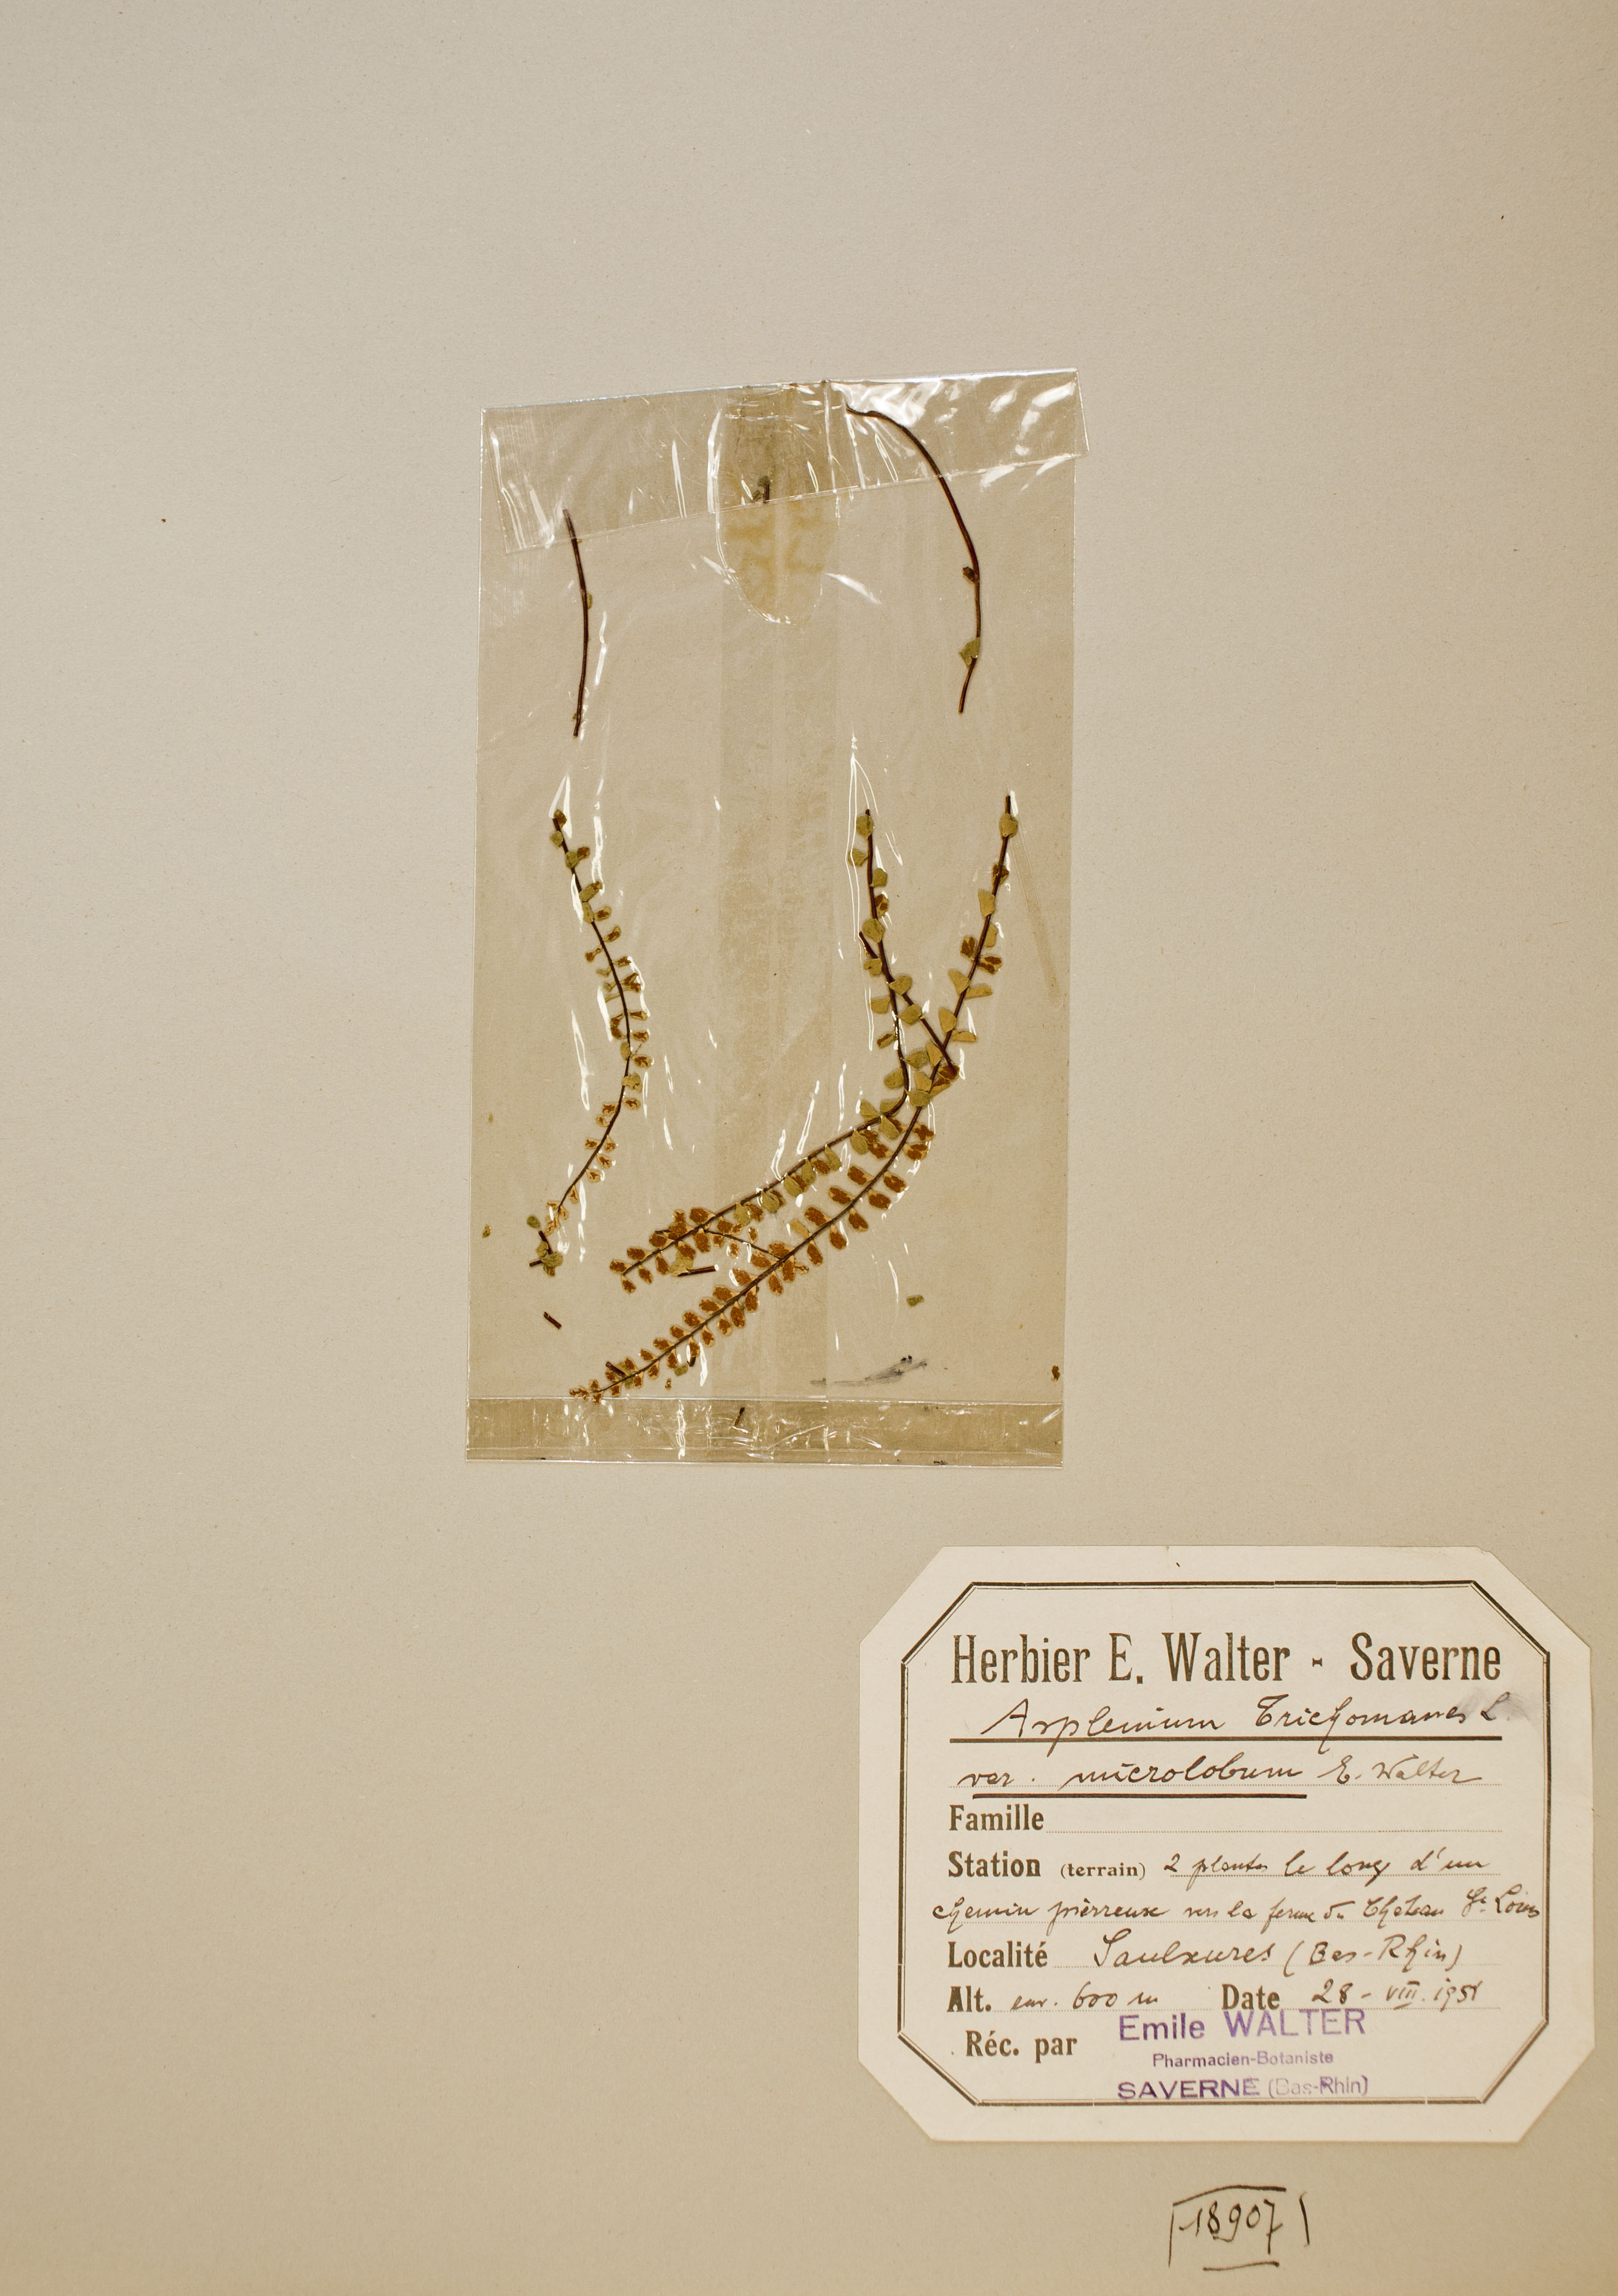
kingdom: Plantae
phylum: Tracheophyta
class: Polypodiopsida
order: Polypodiales
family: Aspleniaceae
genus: Asplenium
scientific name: Asplenium trichomanes
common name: Maidenhair spleenwort
